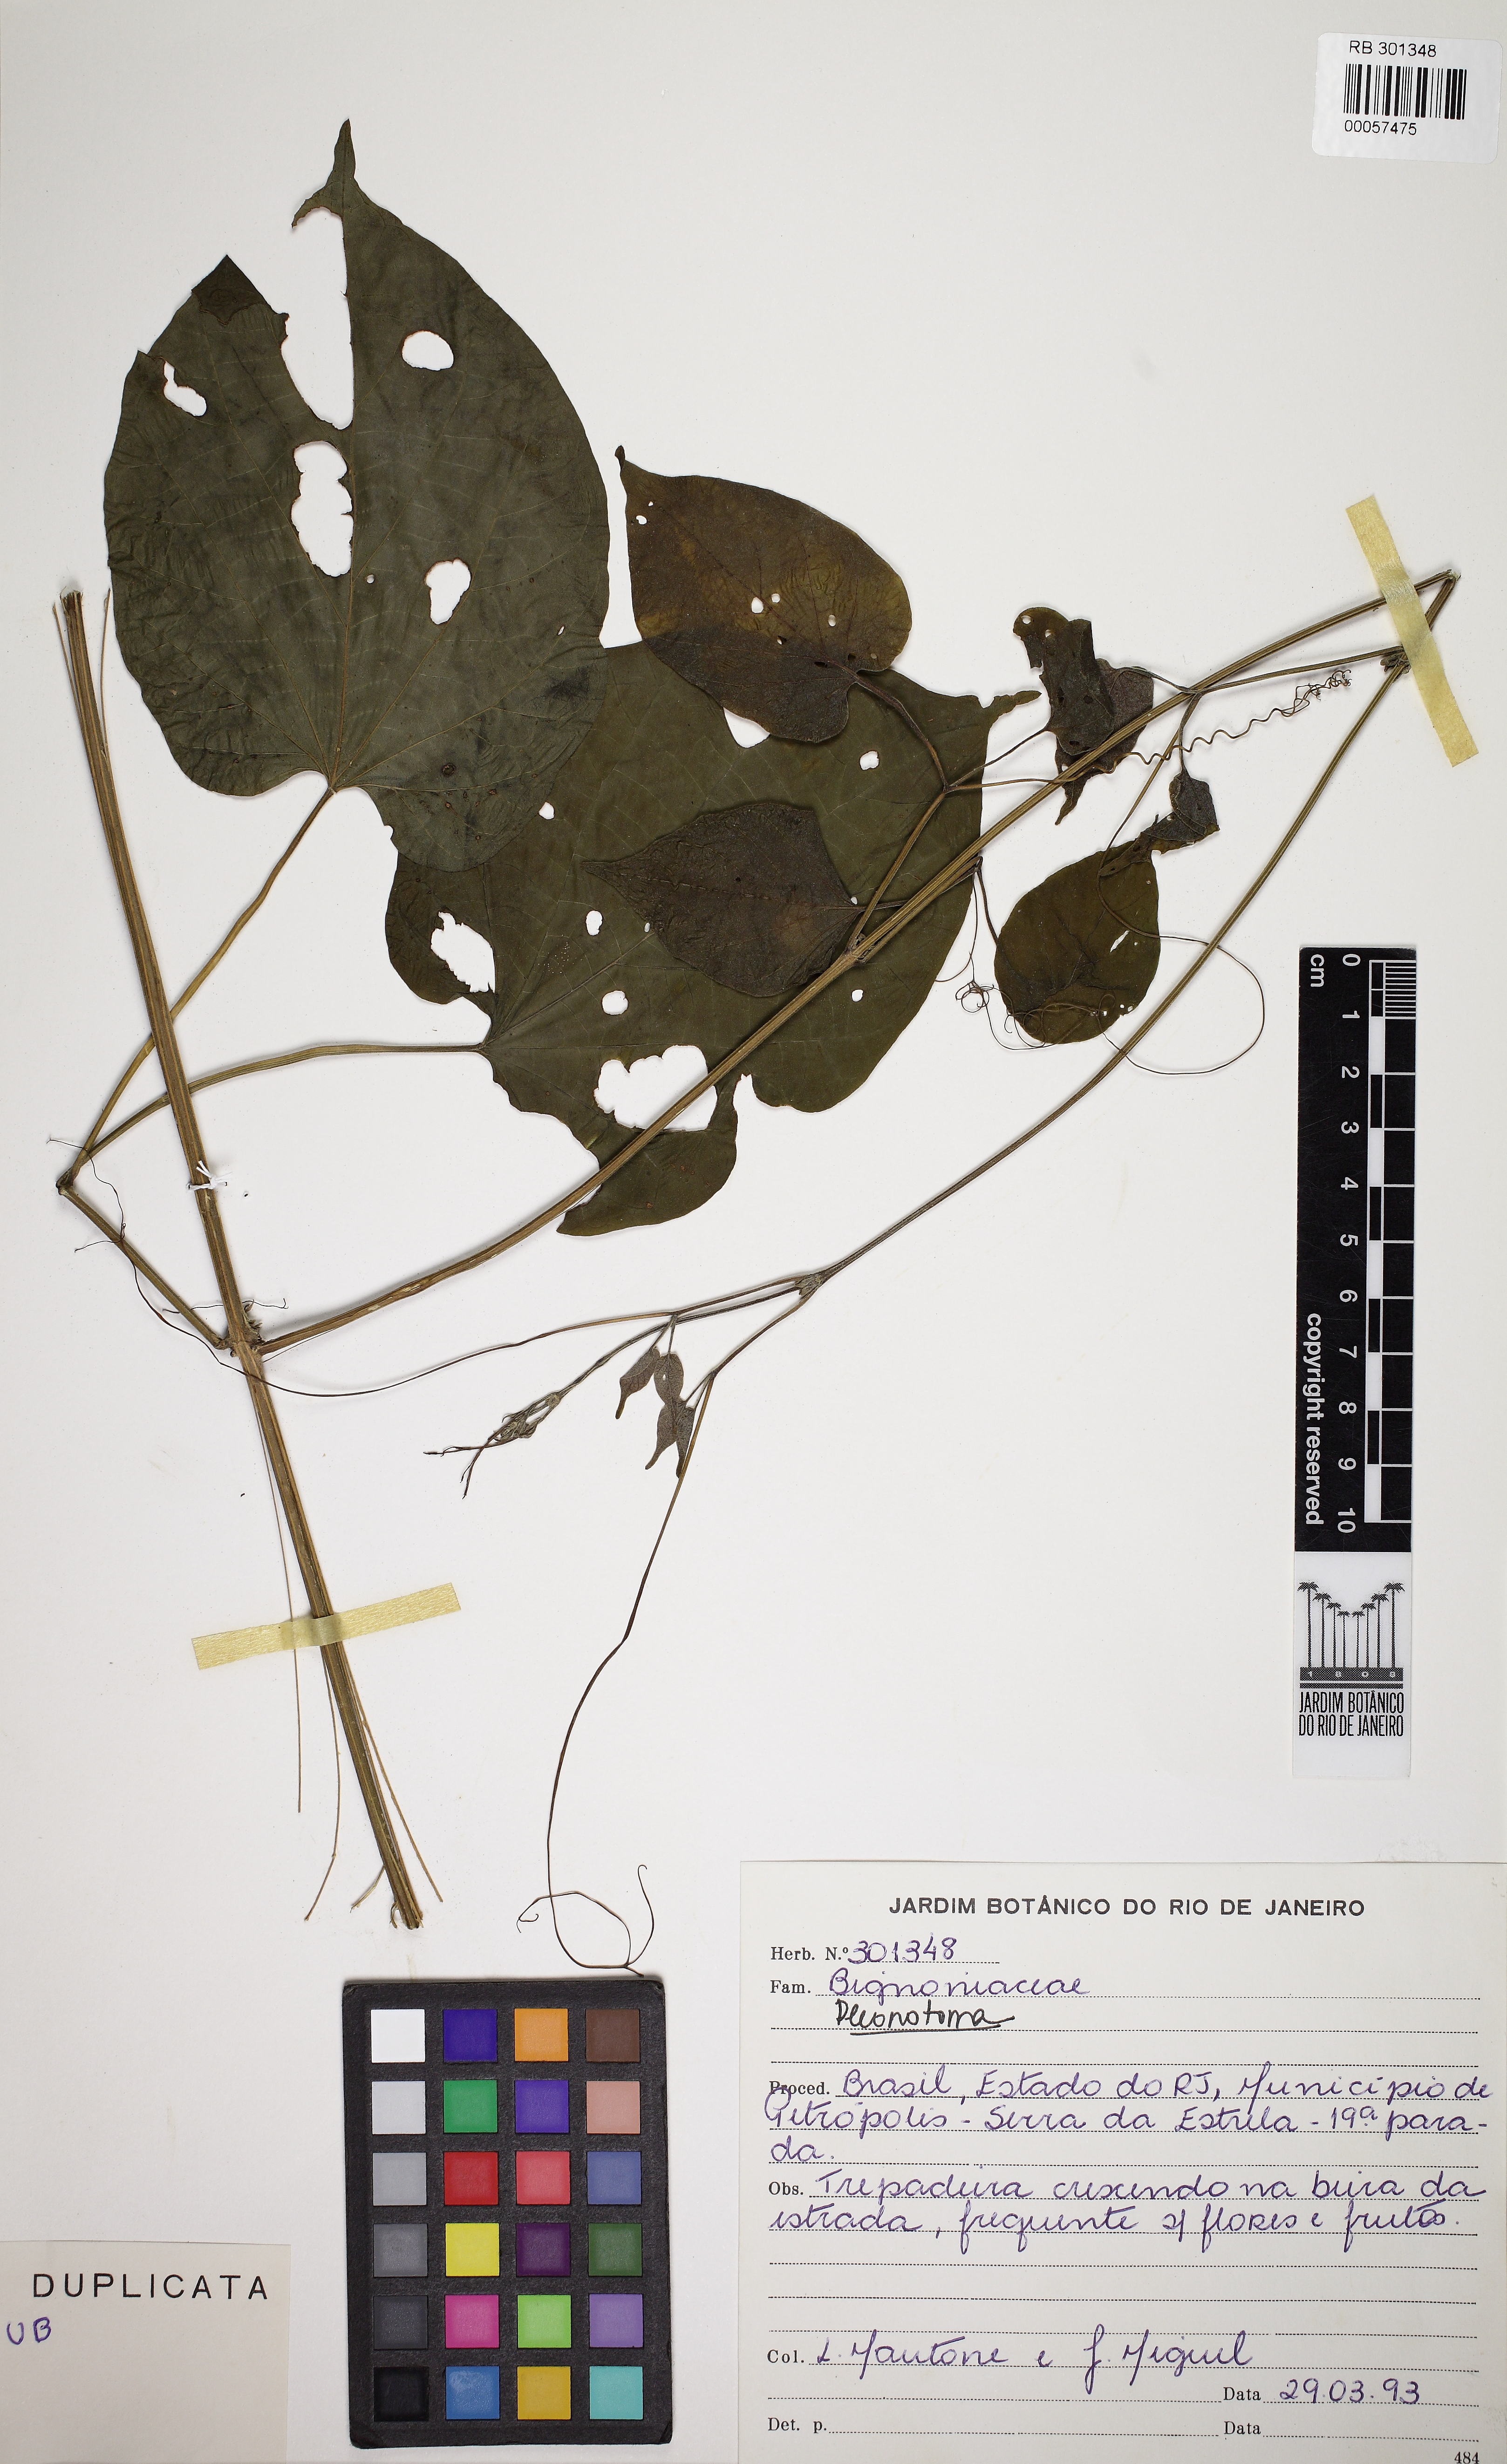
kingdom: Plantae
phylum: Tracheophyta
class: Magnoliopsida
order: Lamiales
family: Bignoniaceae
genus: Amphilophium
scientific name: Amphilophium dusenianum
